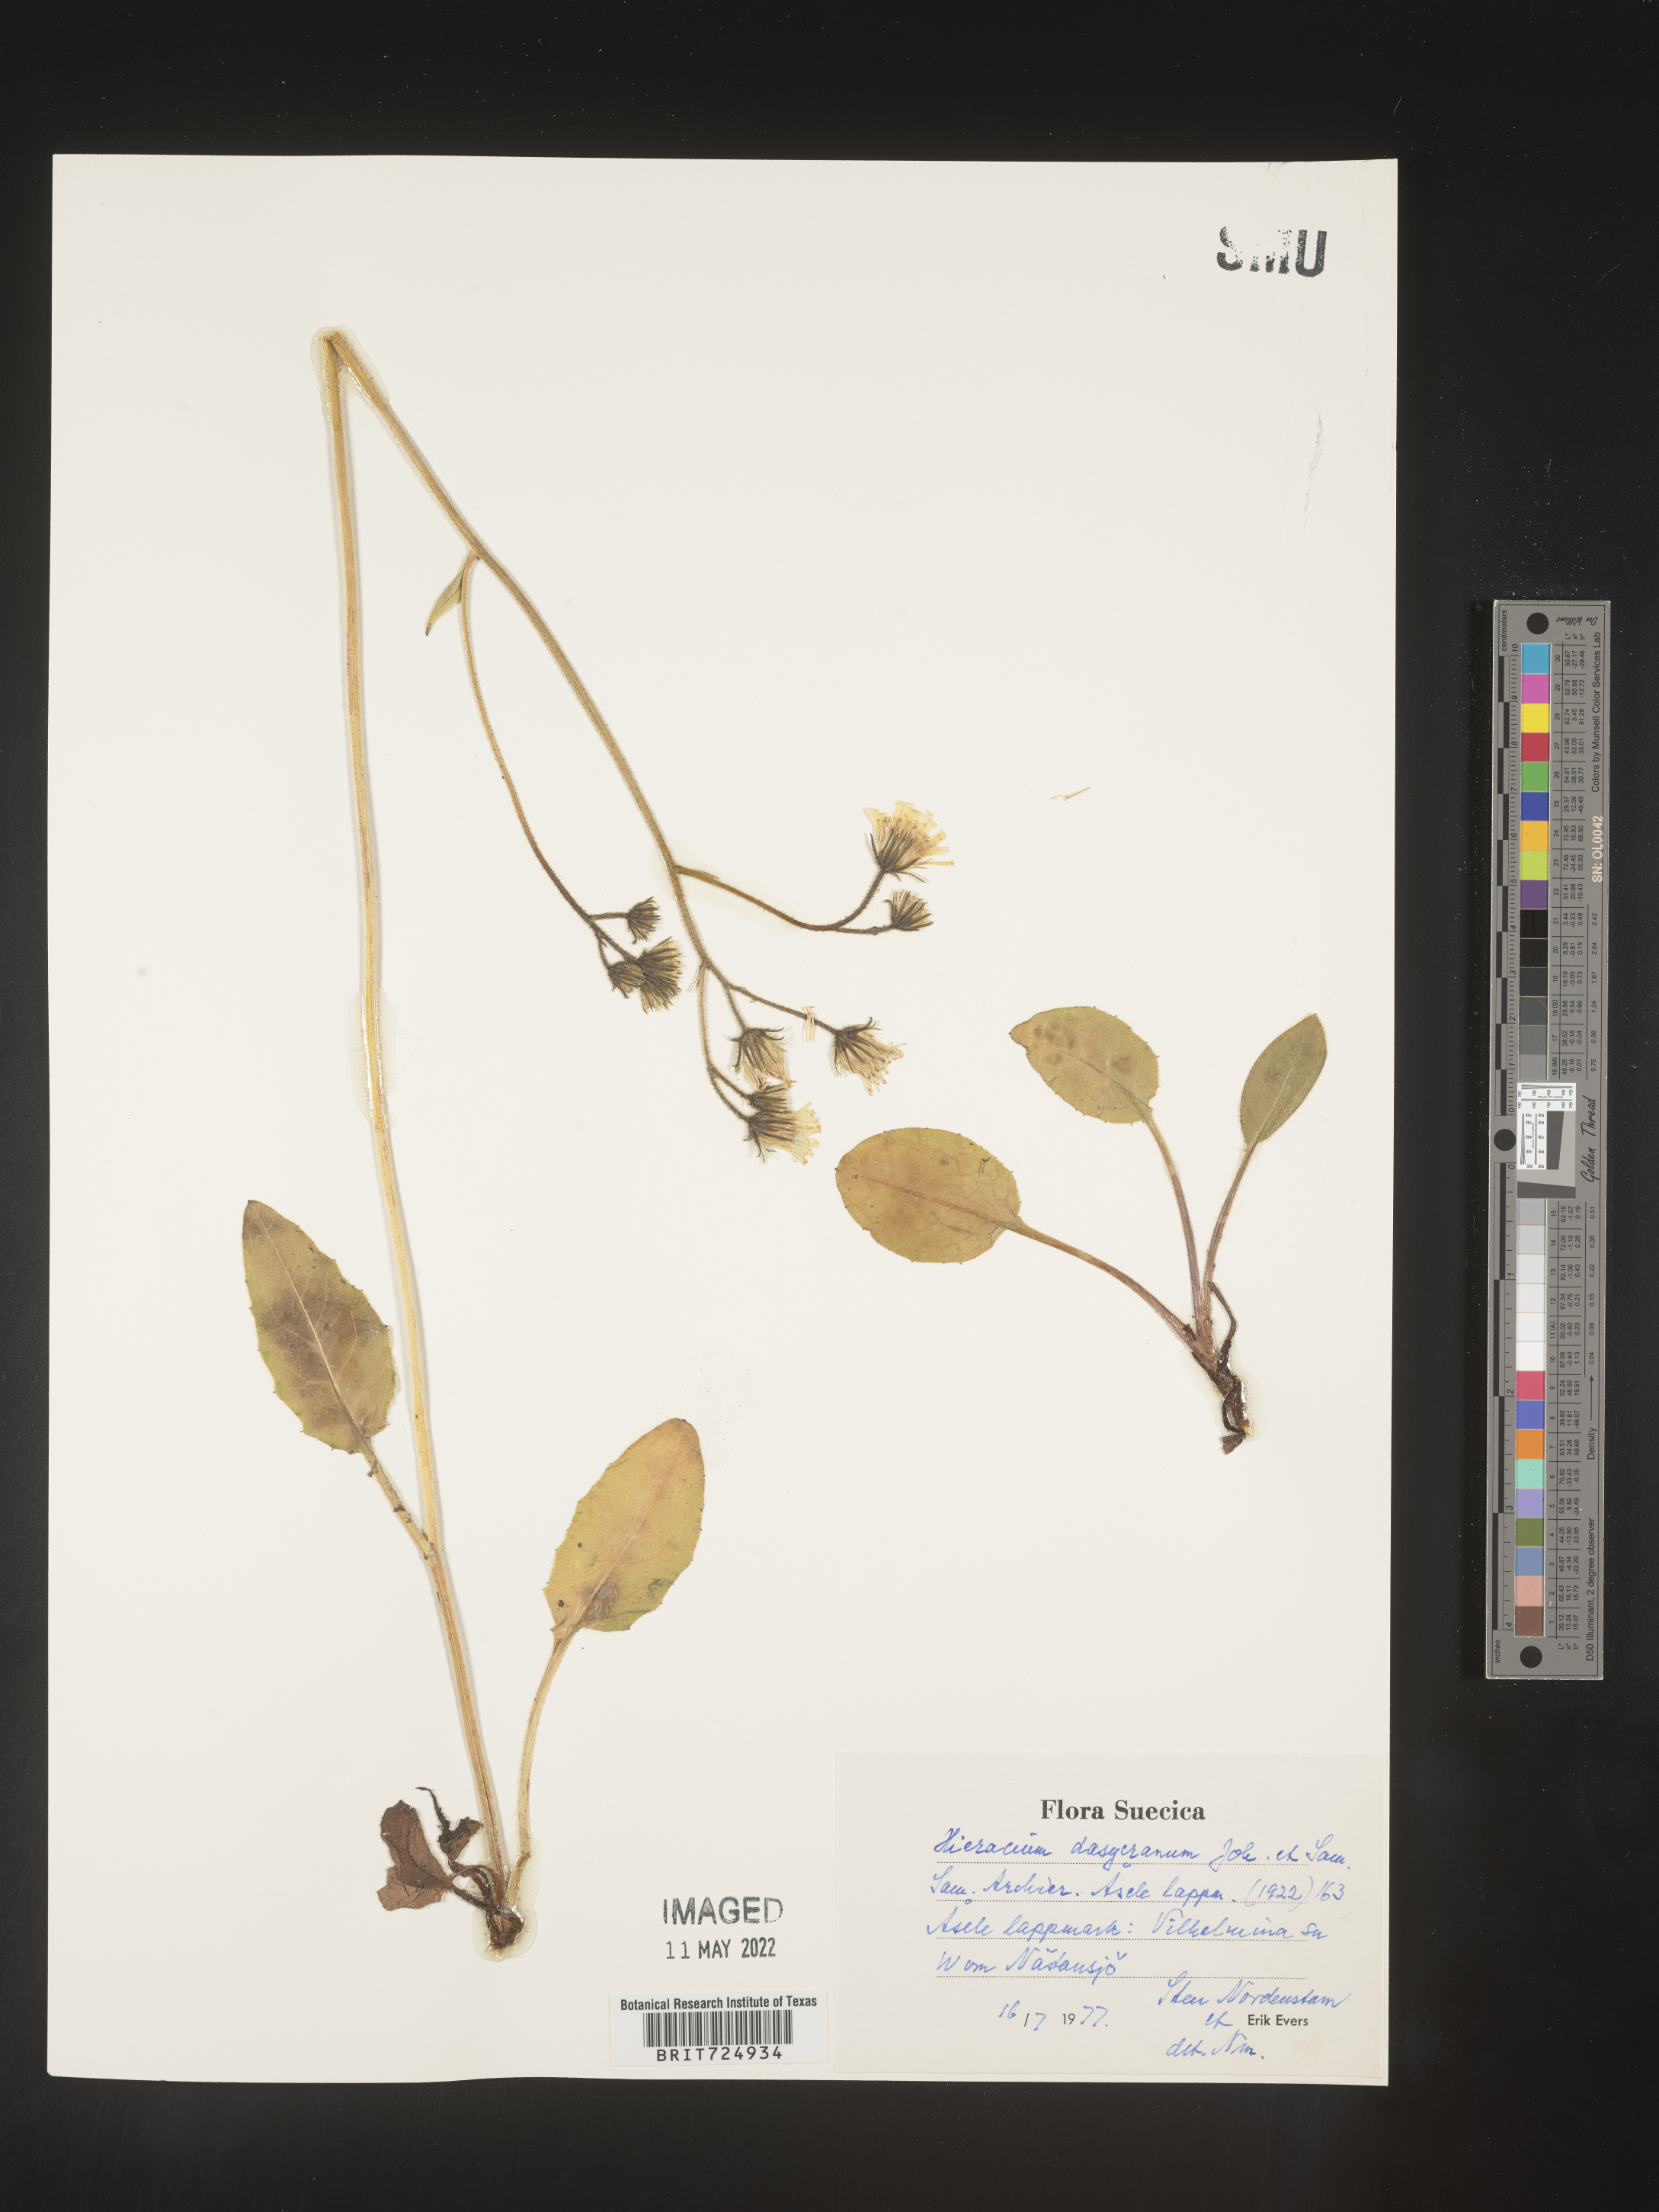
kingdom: Plantae
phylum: Tracheophyta
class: Magnoliopsida
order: Asterales
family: Asteraceae
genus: Hieracium
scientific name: Hieracium
